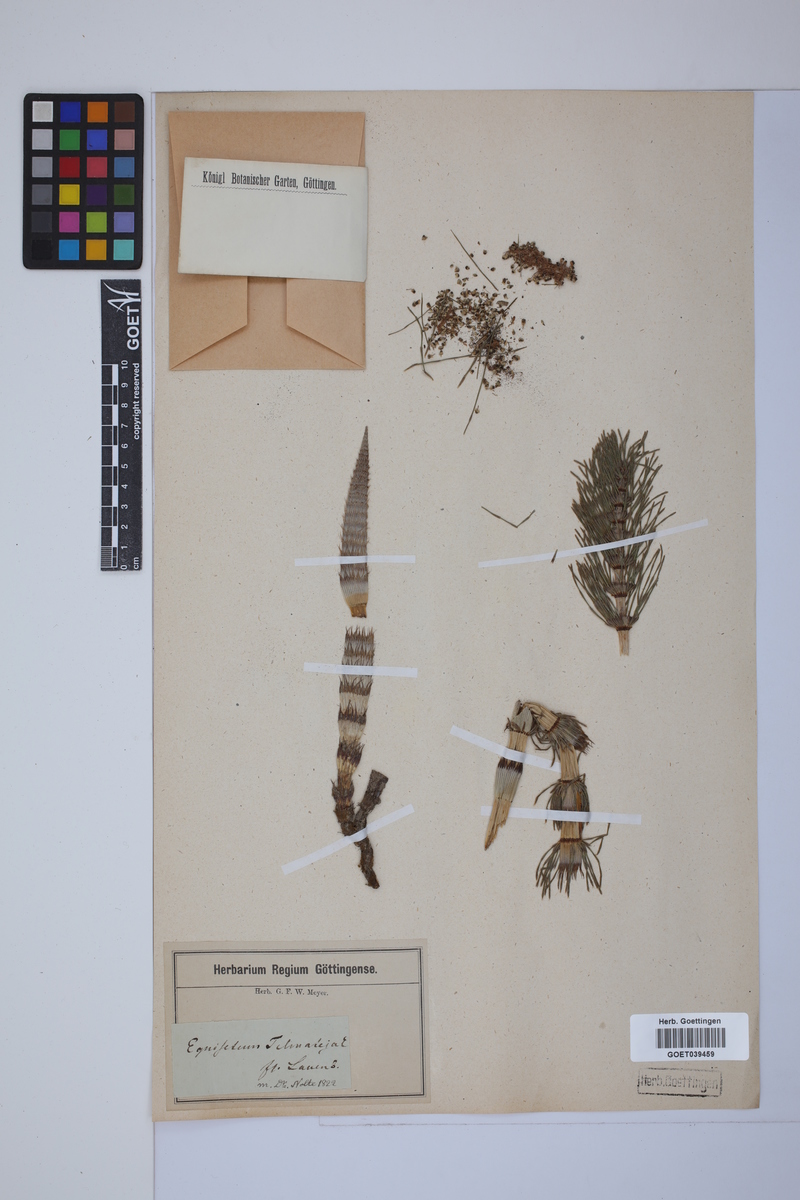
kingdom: Plantae
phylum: Tracheophyta
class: Polypodiopsida
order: Equisetales
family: Equisetaceae
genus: Equisetum
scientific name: Equisetum telmateia
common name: Great horsetail
